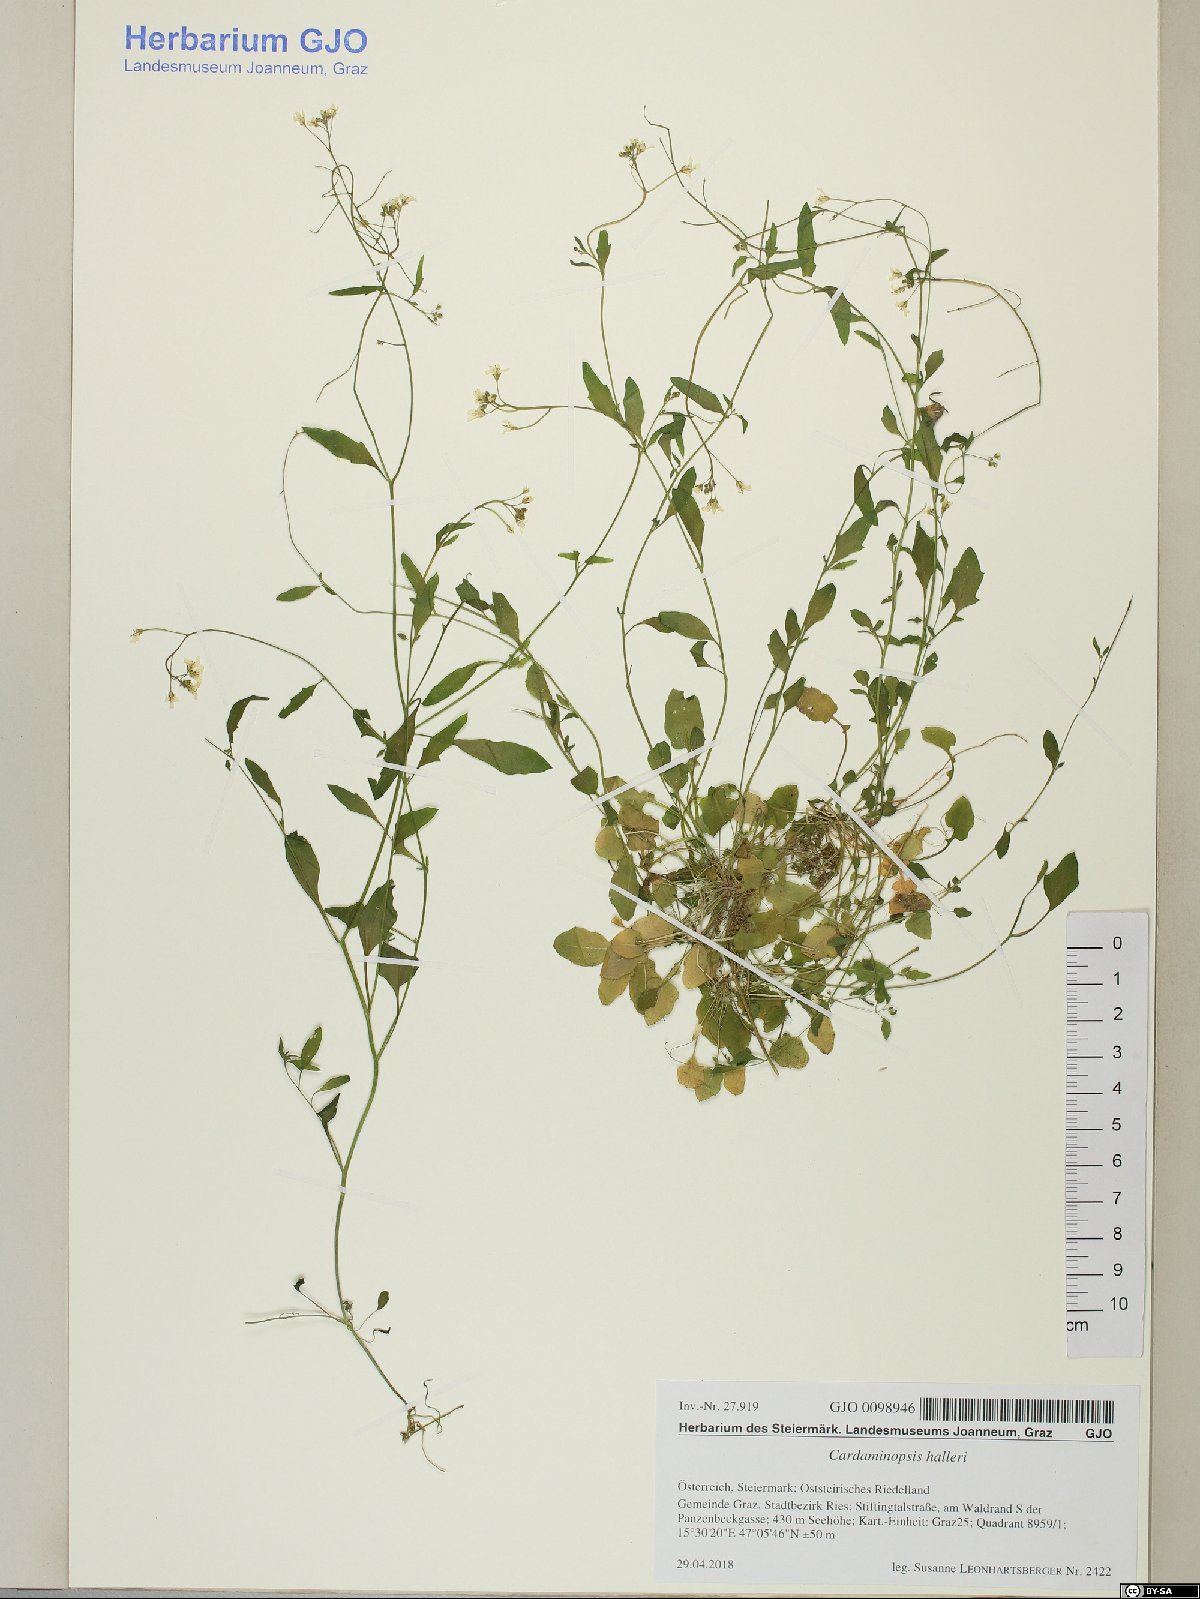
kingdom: Plantae
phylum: Tracheophyta
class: Magnoliopsida
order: Brassicales
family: Brassicaceae
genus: Arabidopsis
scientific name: Arabidopsis halleri
